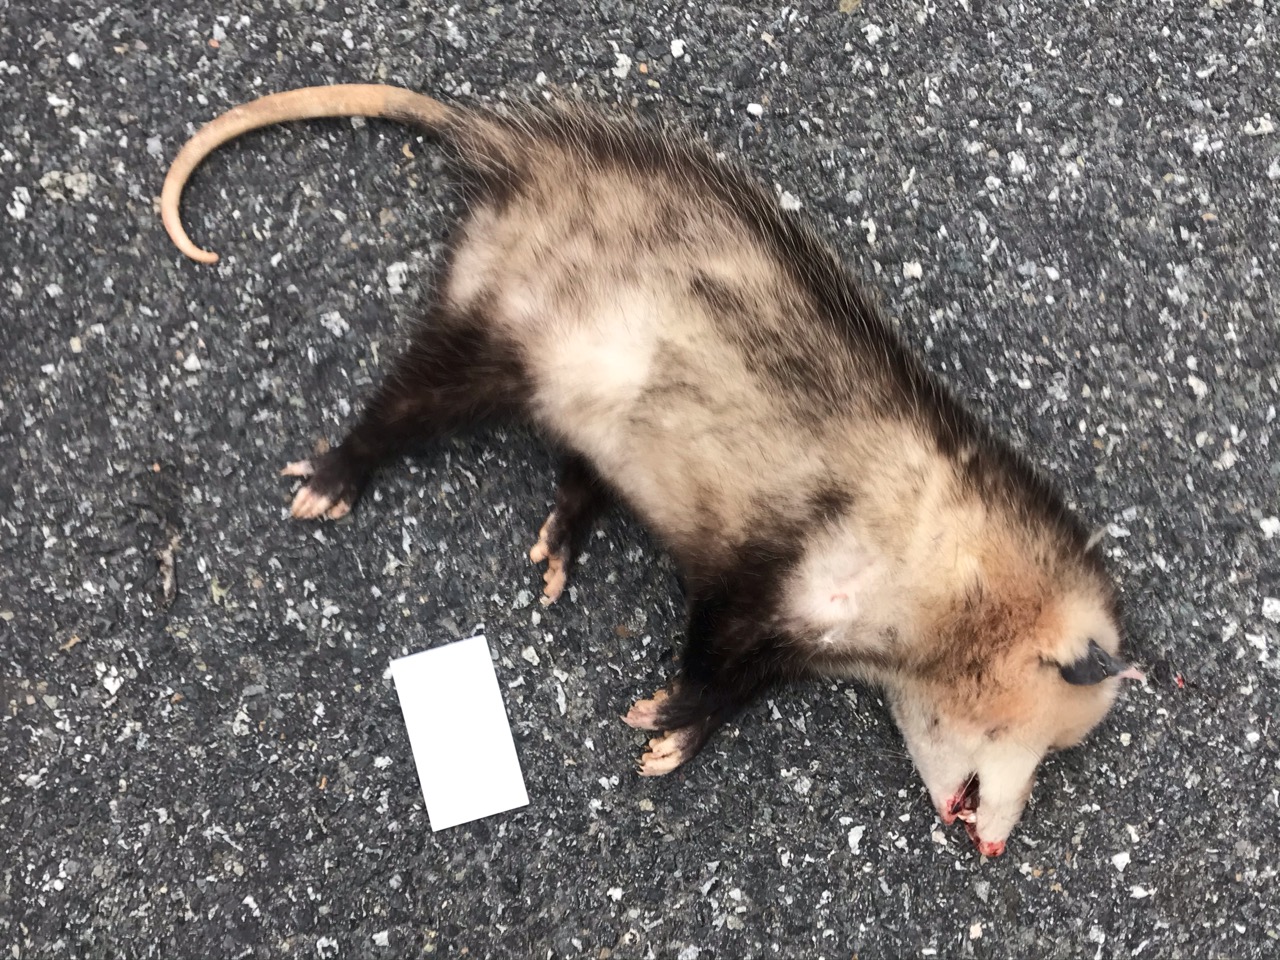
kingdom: Animalia
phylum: Chordata
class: Mammalia
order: Didelphimorphia
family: Didelphidae
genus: Didelphis
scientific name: Didelphis virginiana
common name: Virginia opossum
